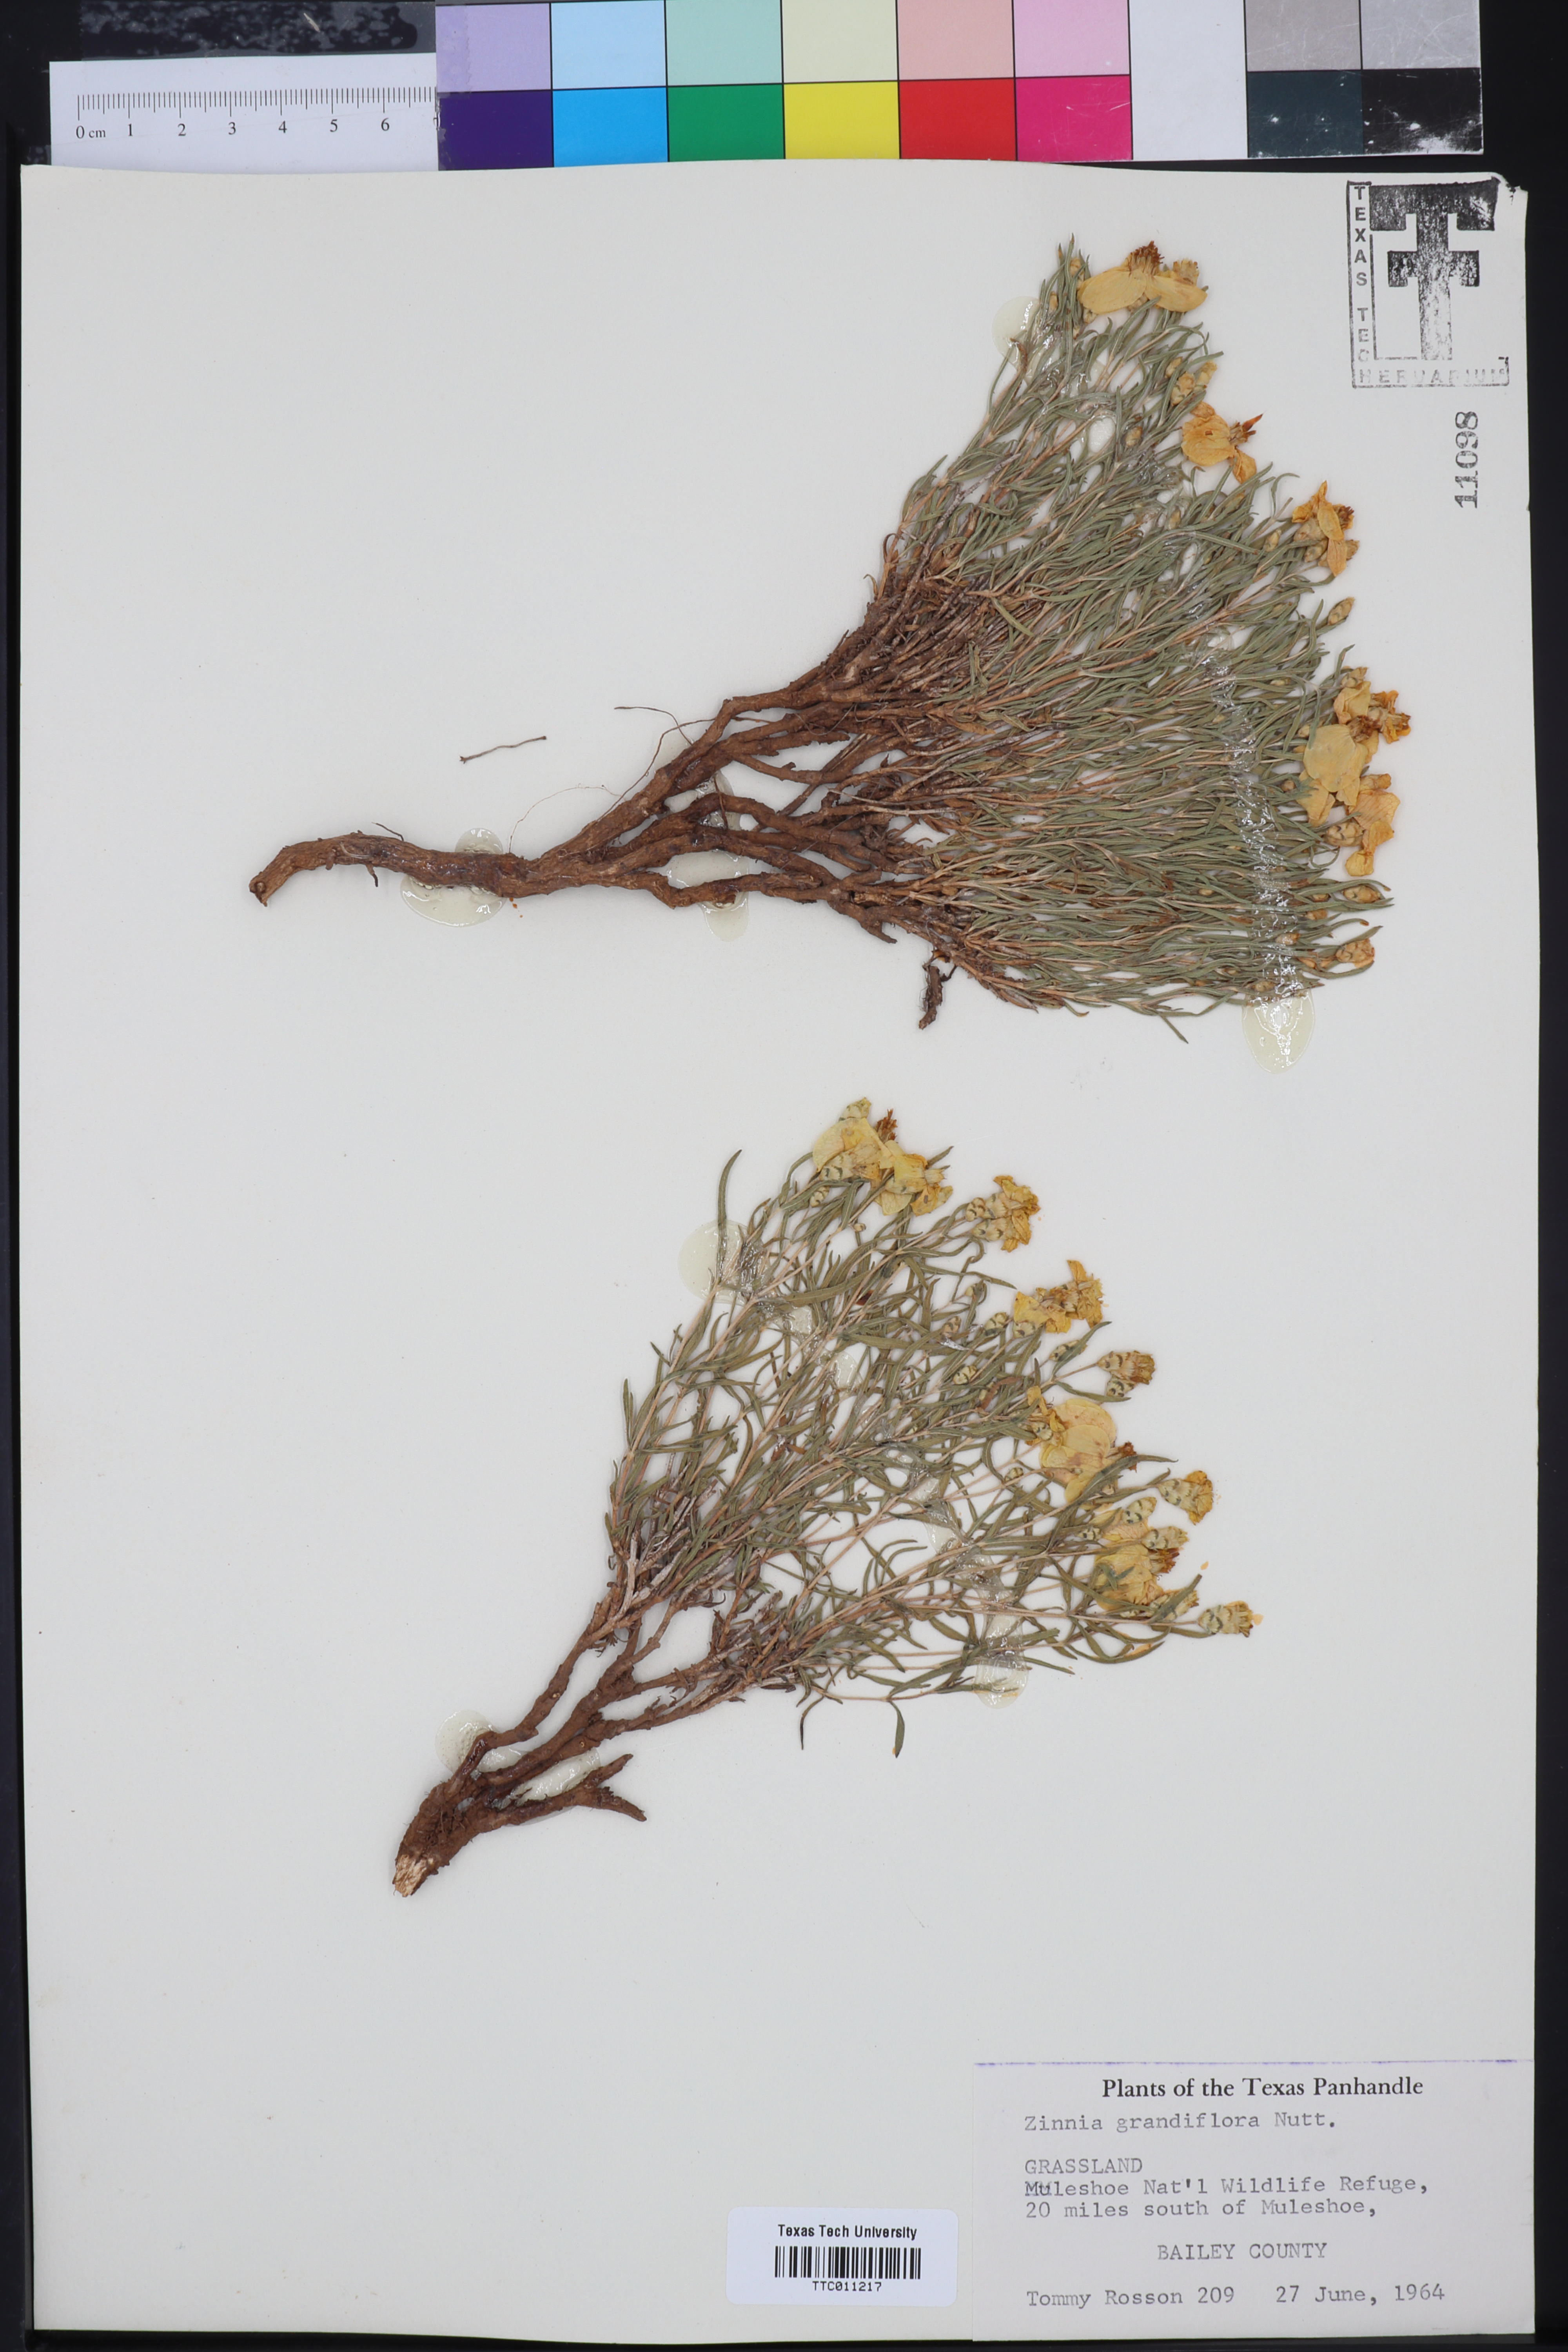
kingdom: Plantae
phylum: Tracheophyta
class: Magnoliopsida
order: Asterales
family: Asteraceae
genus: Zinnia
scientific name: Zinnia grandiflora
